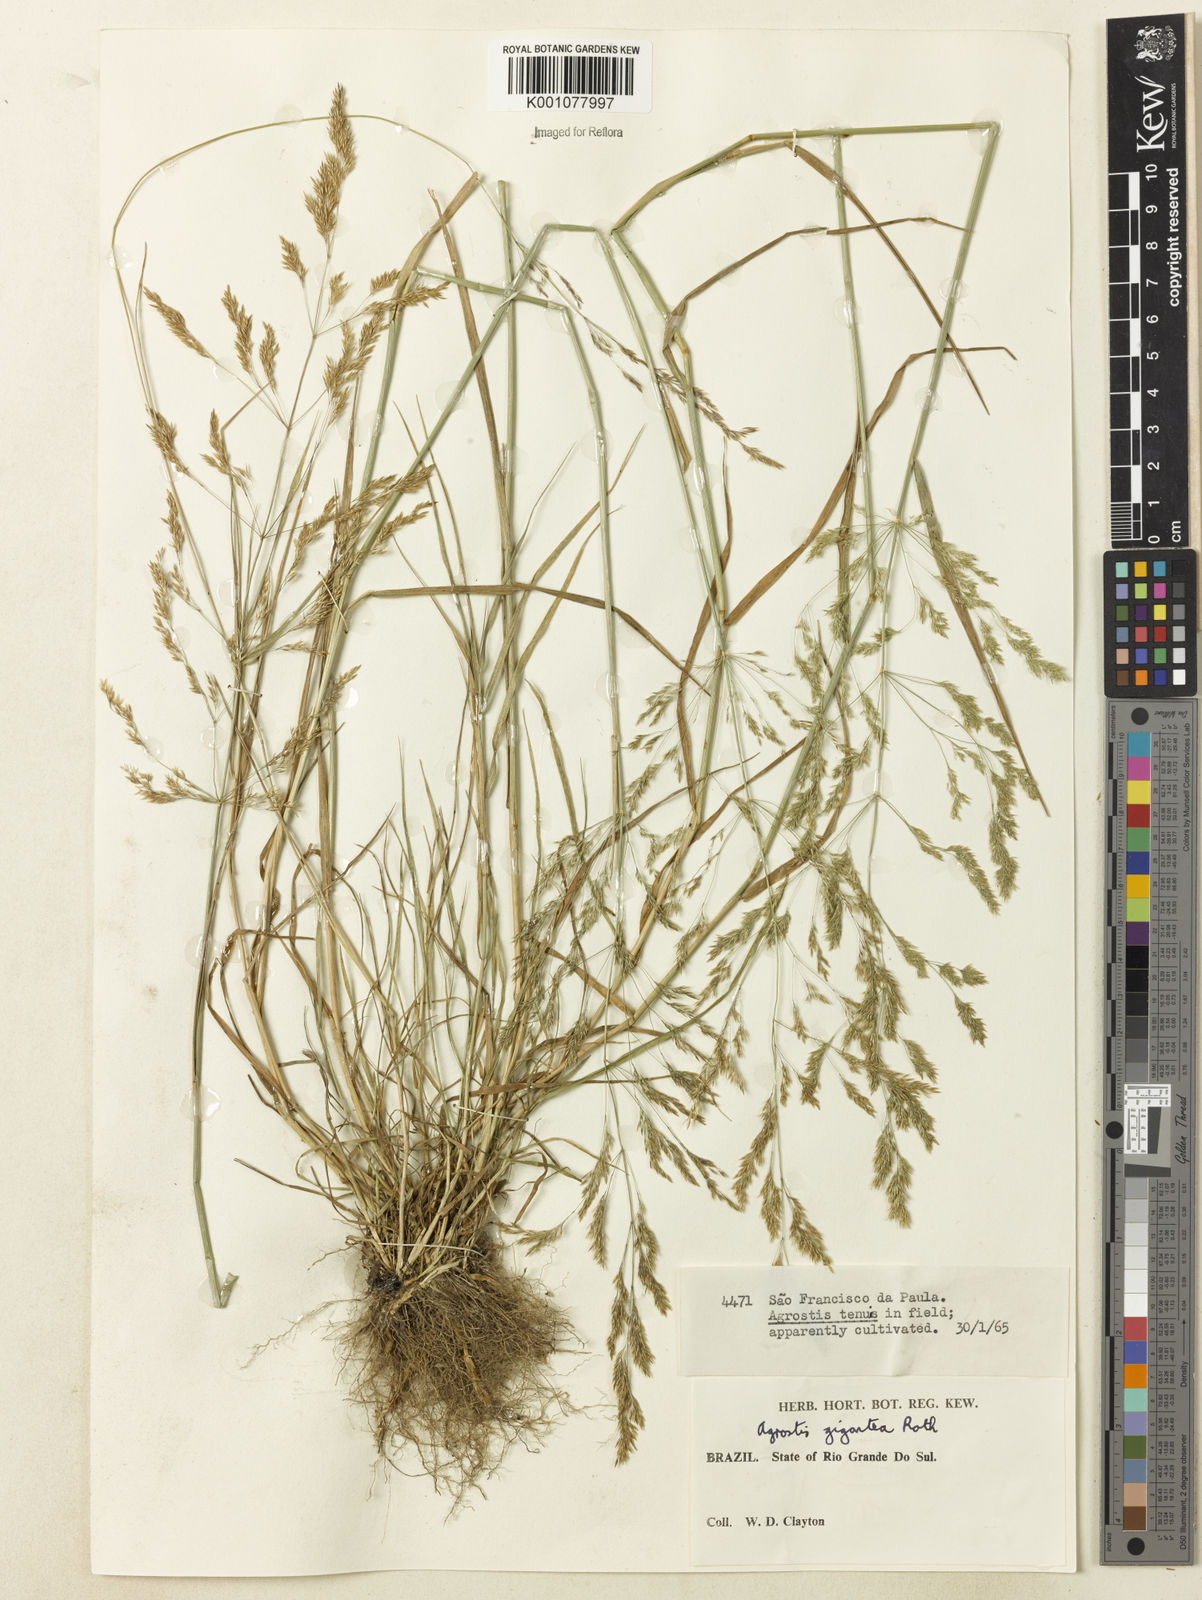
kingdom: Plantae
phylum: Tracheophyta
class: Liliopsida
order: Poales
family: Poaceae
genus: Agrostis
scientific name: Agrostis gigantea
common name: Black bent
